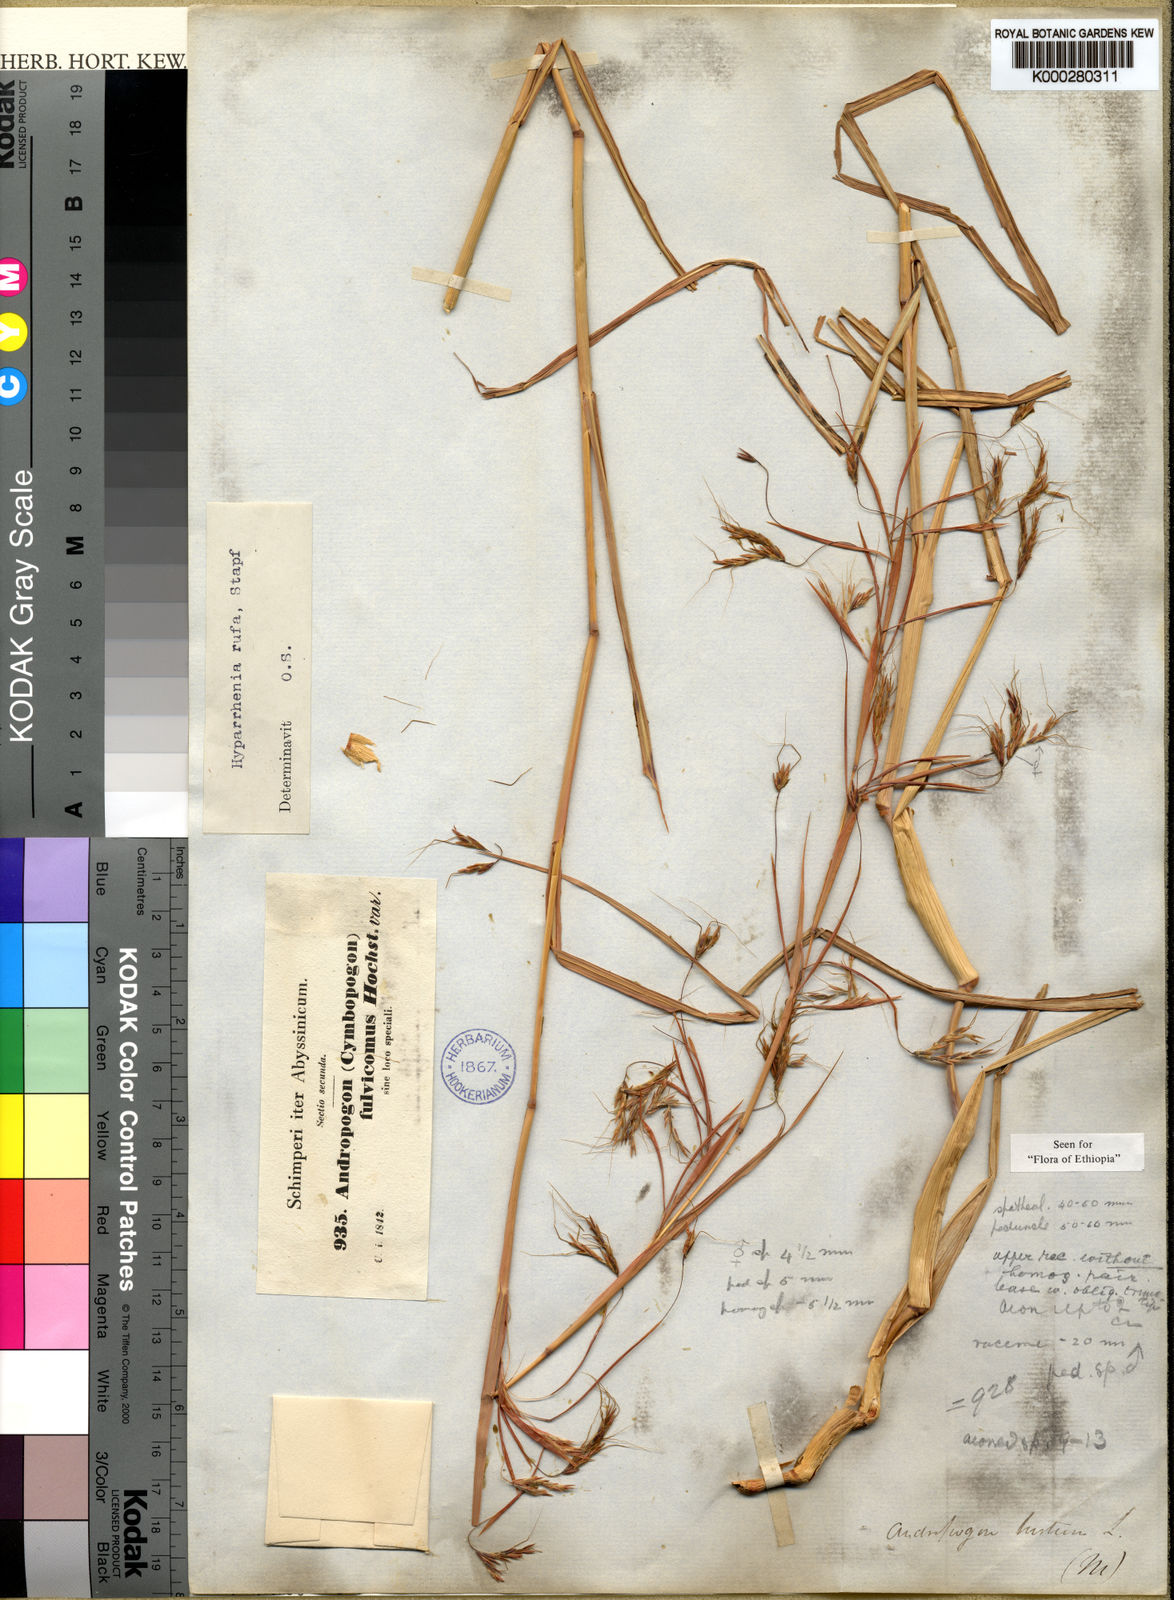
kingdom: Plantae
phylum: Tracheophyta
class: Liliopsida
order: Poales
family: Poaceae
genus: Hyparrhenia
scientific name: Hyparrhenia rufa
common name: Jaraguagrass
